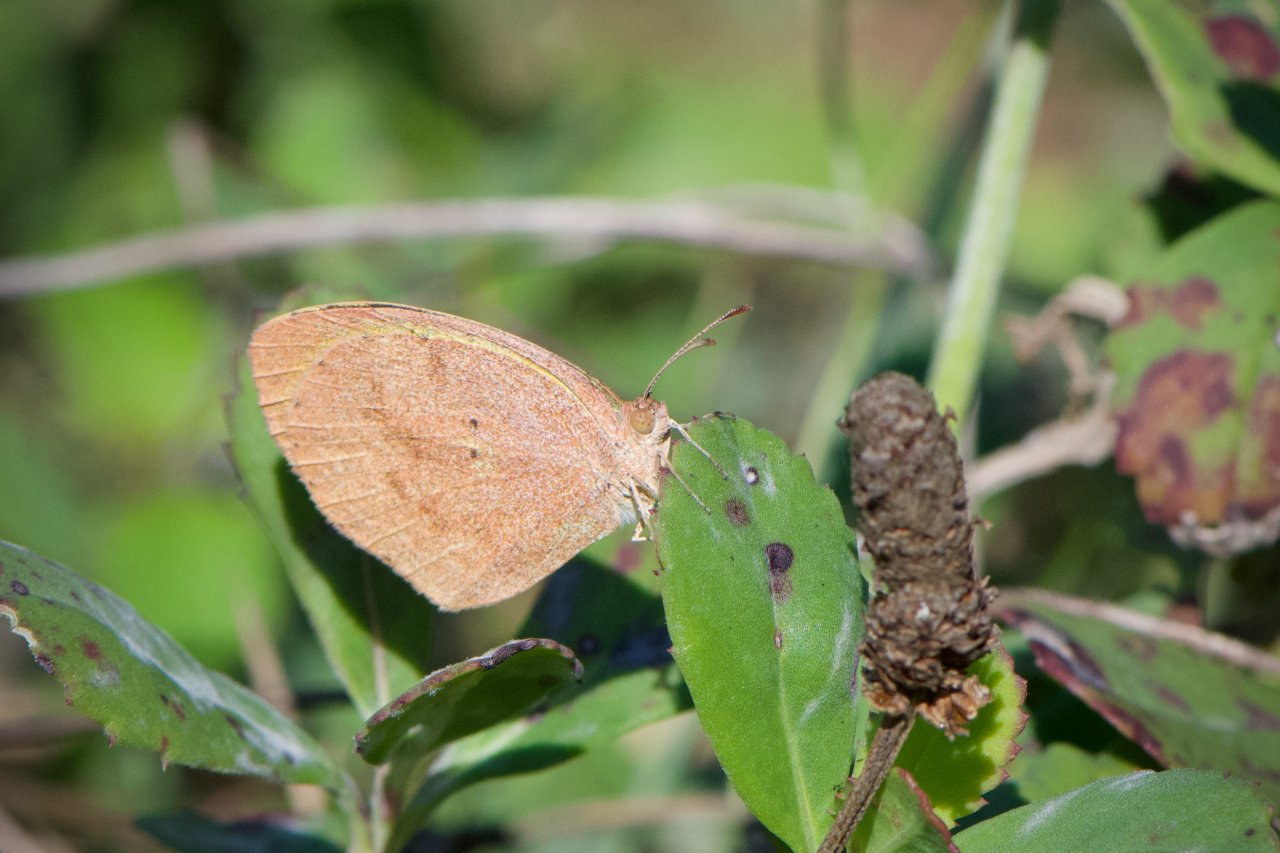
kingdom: Animalia
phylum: Arthropoda
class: Insecta
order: Lepidoptera
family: Pieridae
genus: Eurema
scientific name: Eurema daira
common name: Barred Yellow
